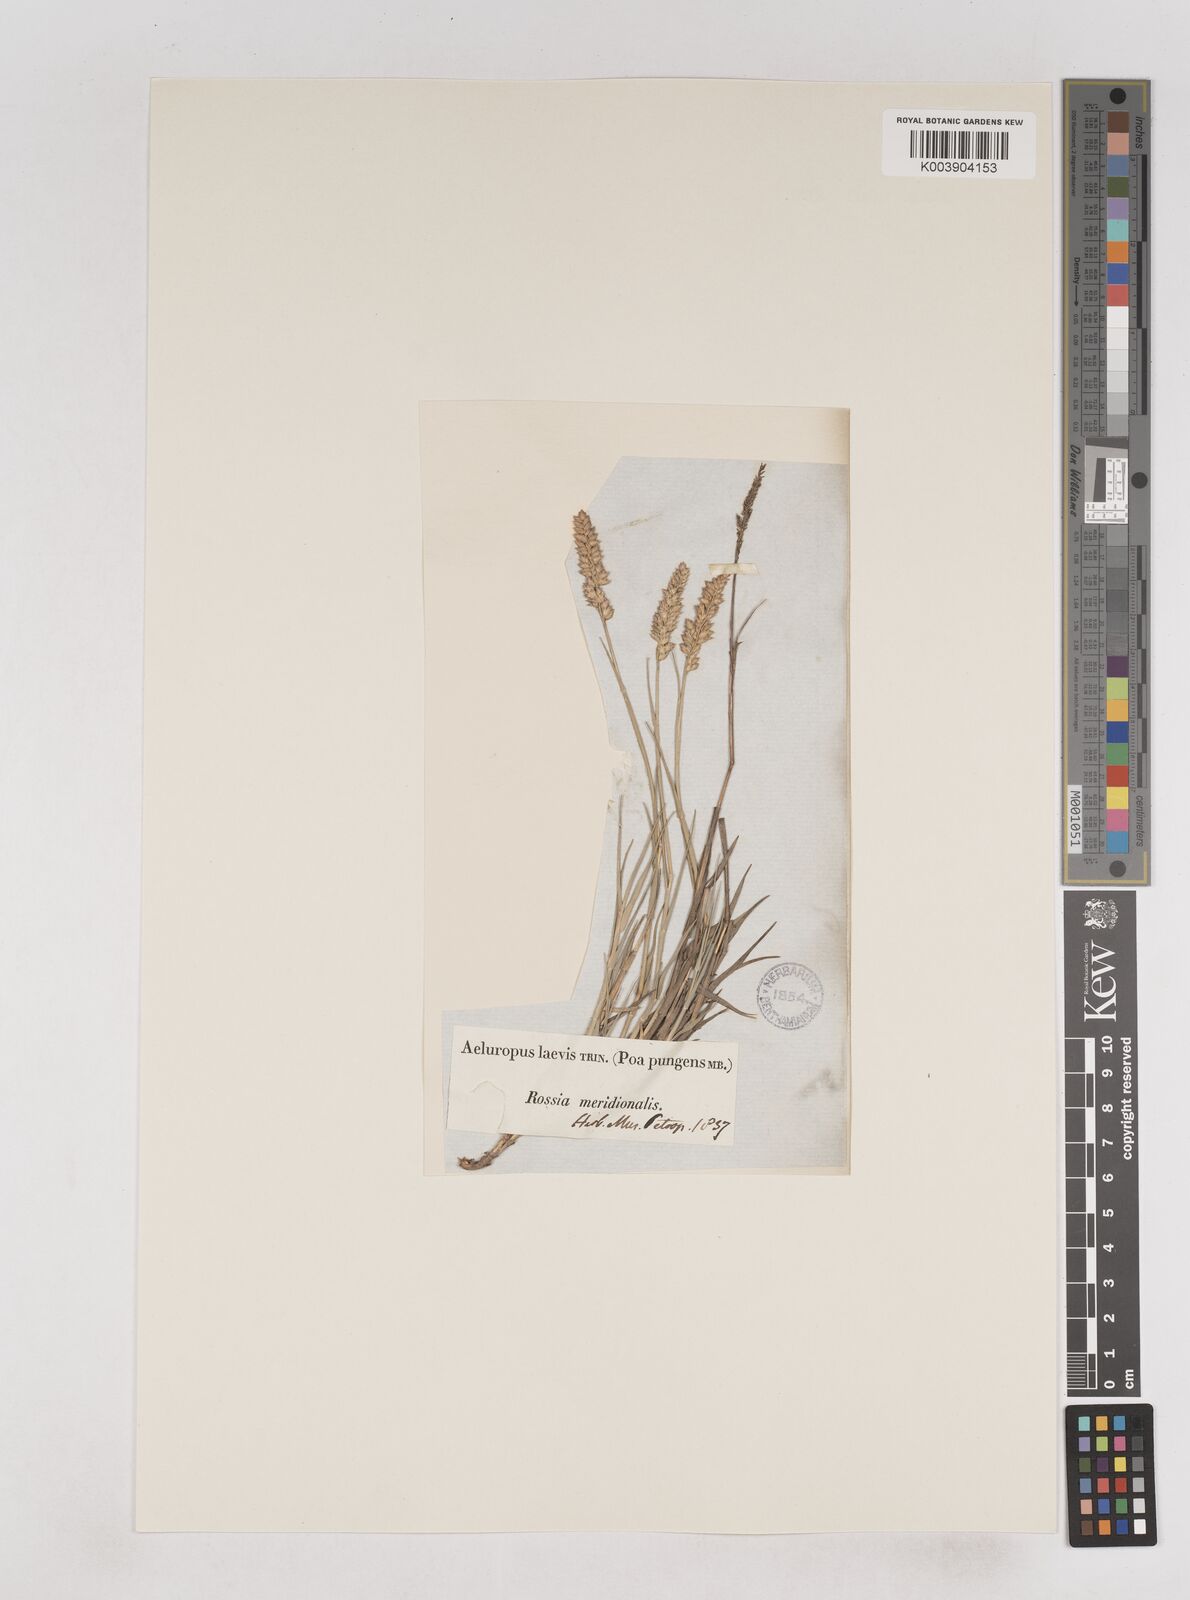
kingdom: Plantae
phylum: Tracheophyta
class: Liliopsida
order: Poales
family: Poaceae
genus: Aeluropus
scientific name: Aeluropus littoralis
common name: Indian walnut
